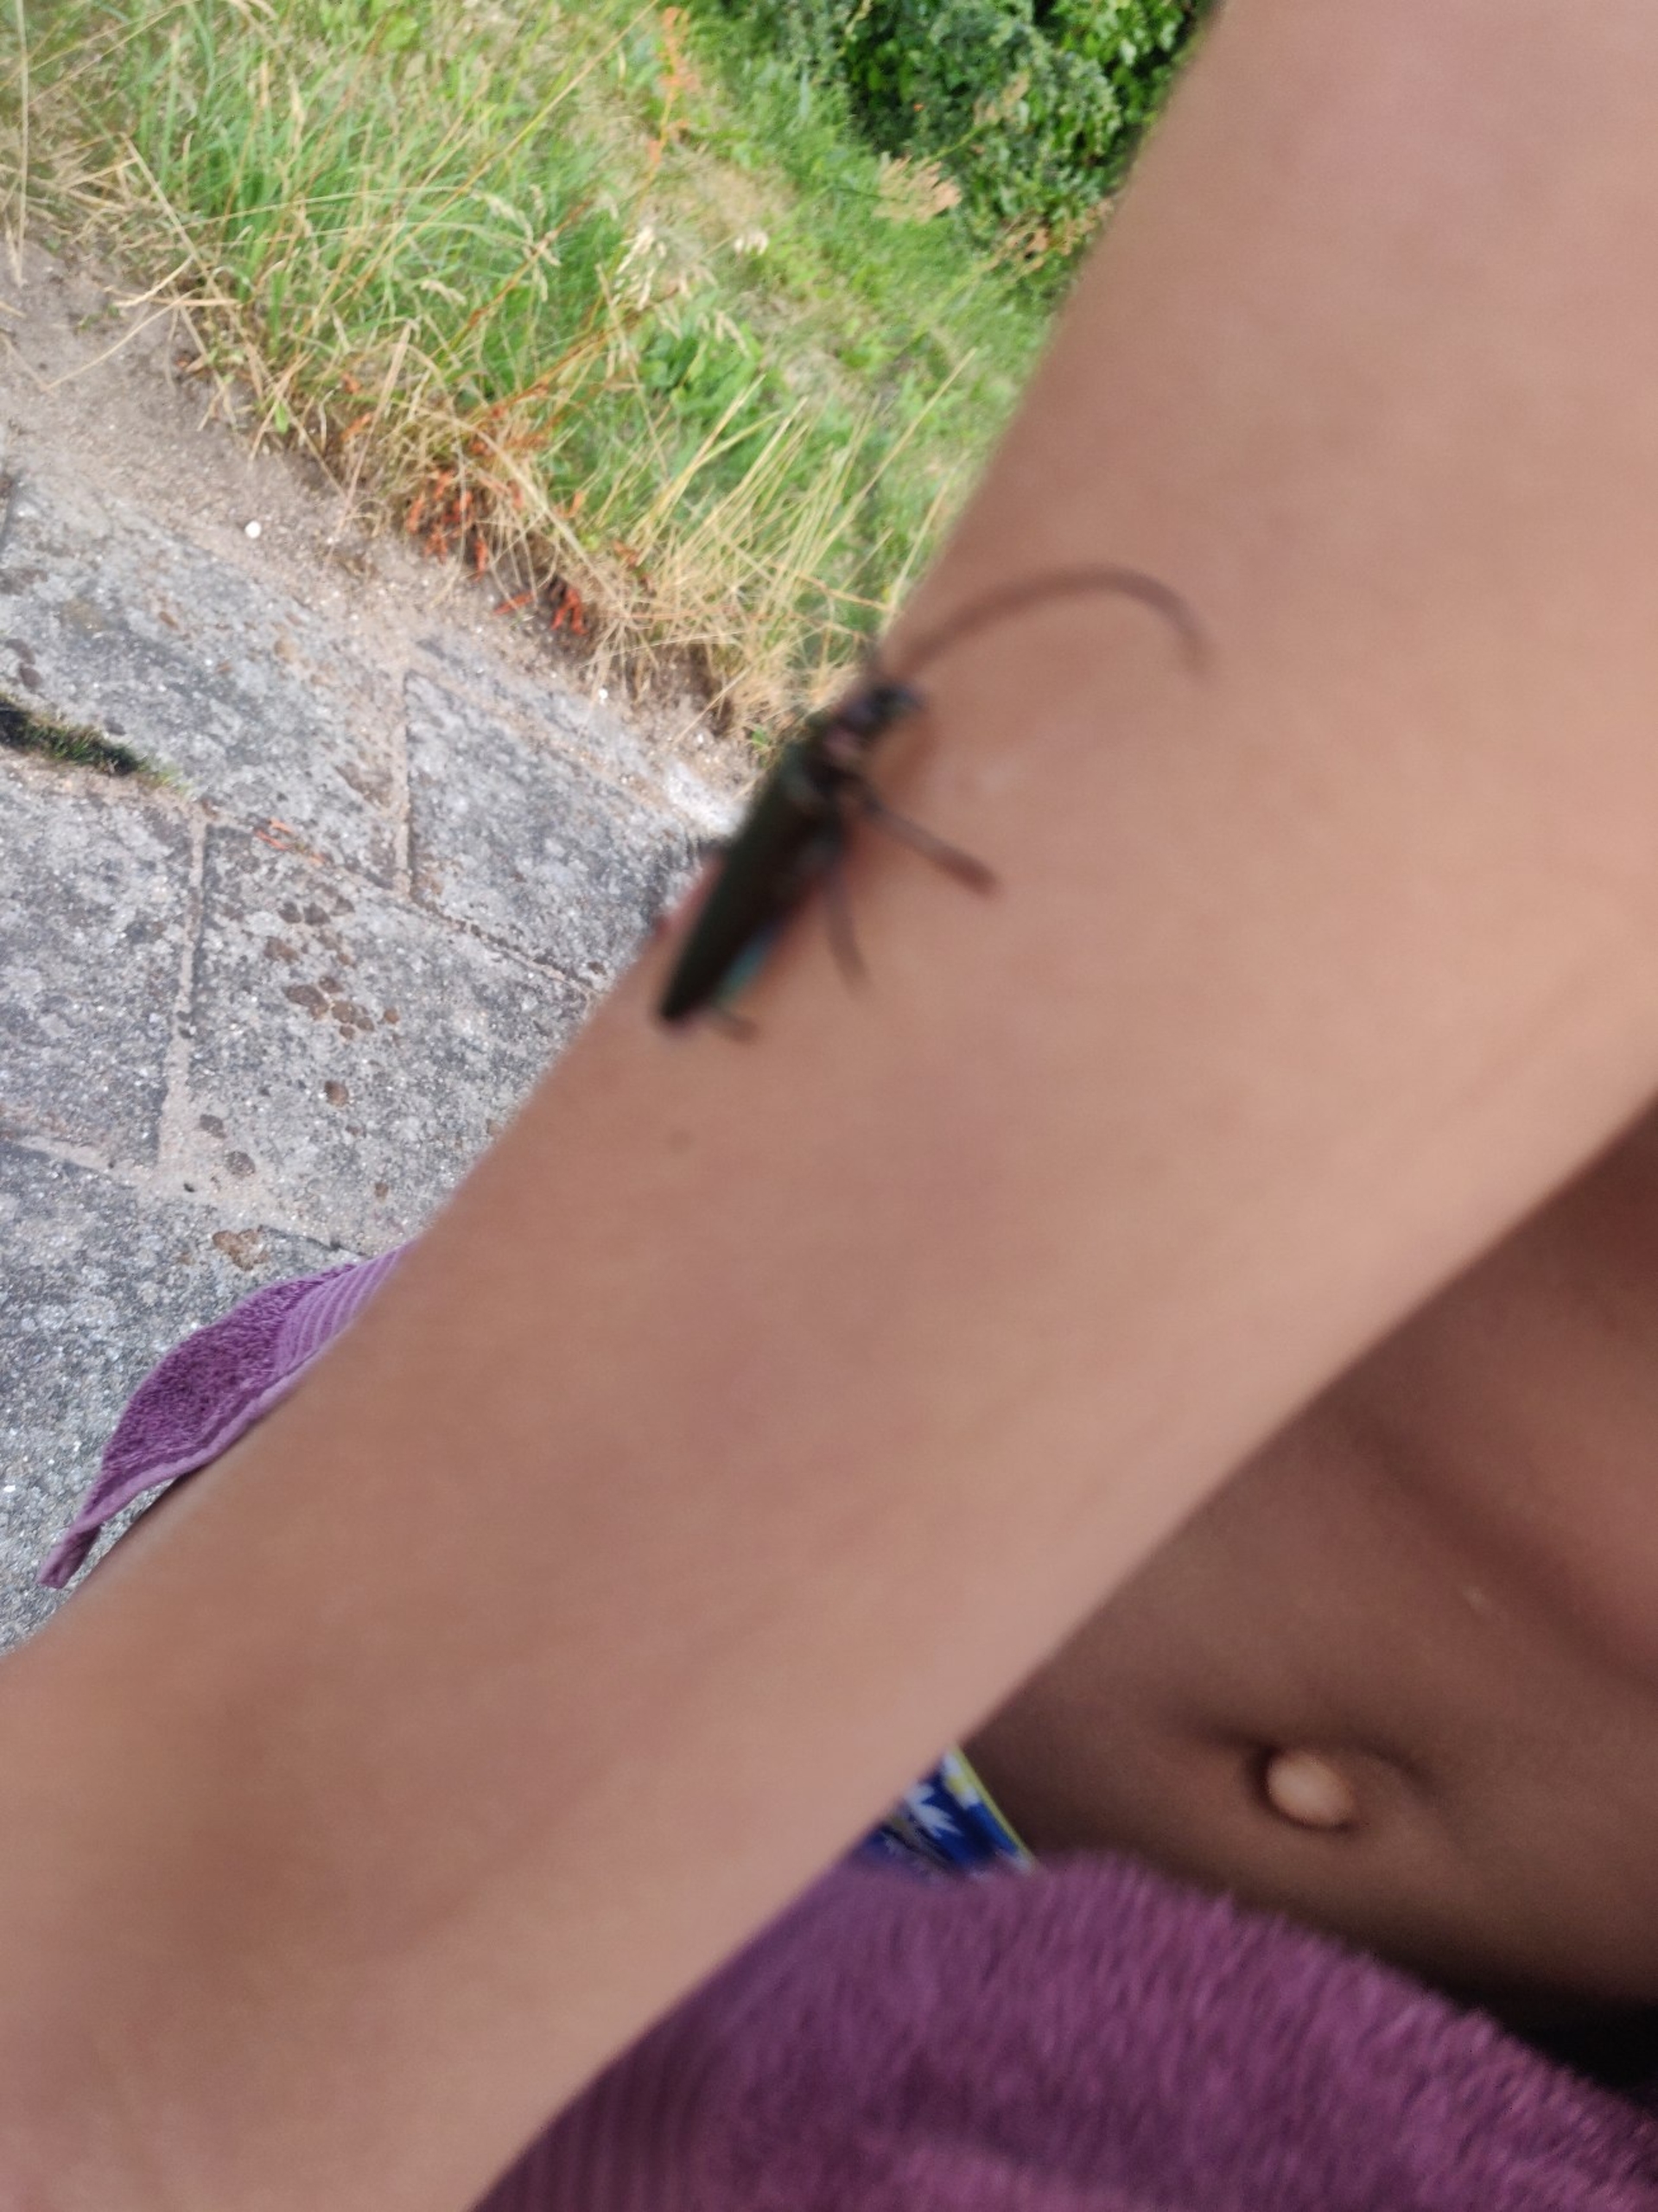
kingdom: Animalia
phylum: Arthropoda
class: Insecta
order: Coleoptera
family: Cerambycidae
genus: Aromia
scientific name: Aromia moschata
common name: Moskusbuk
